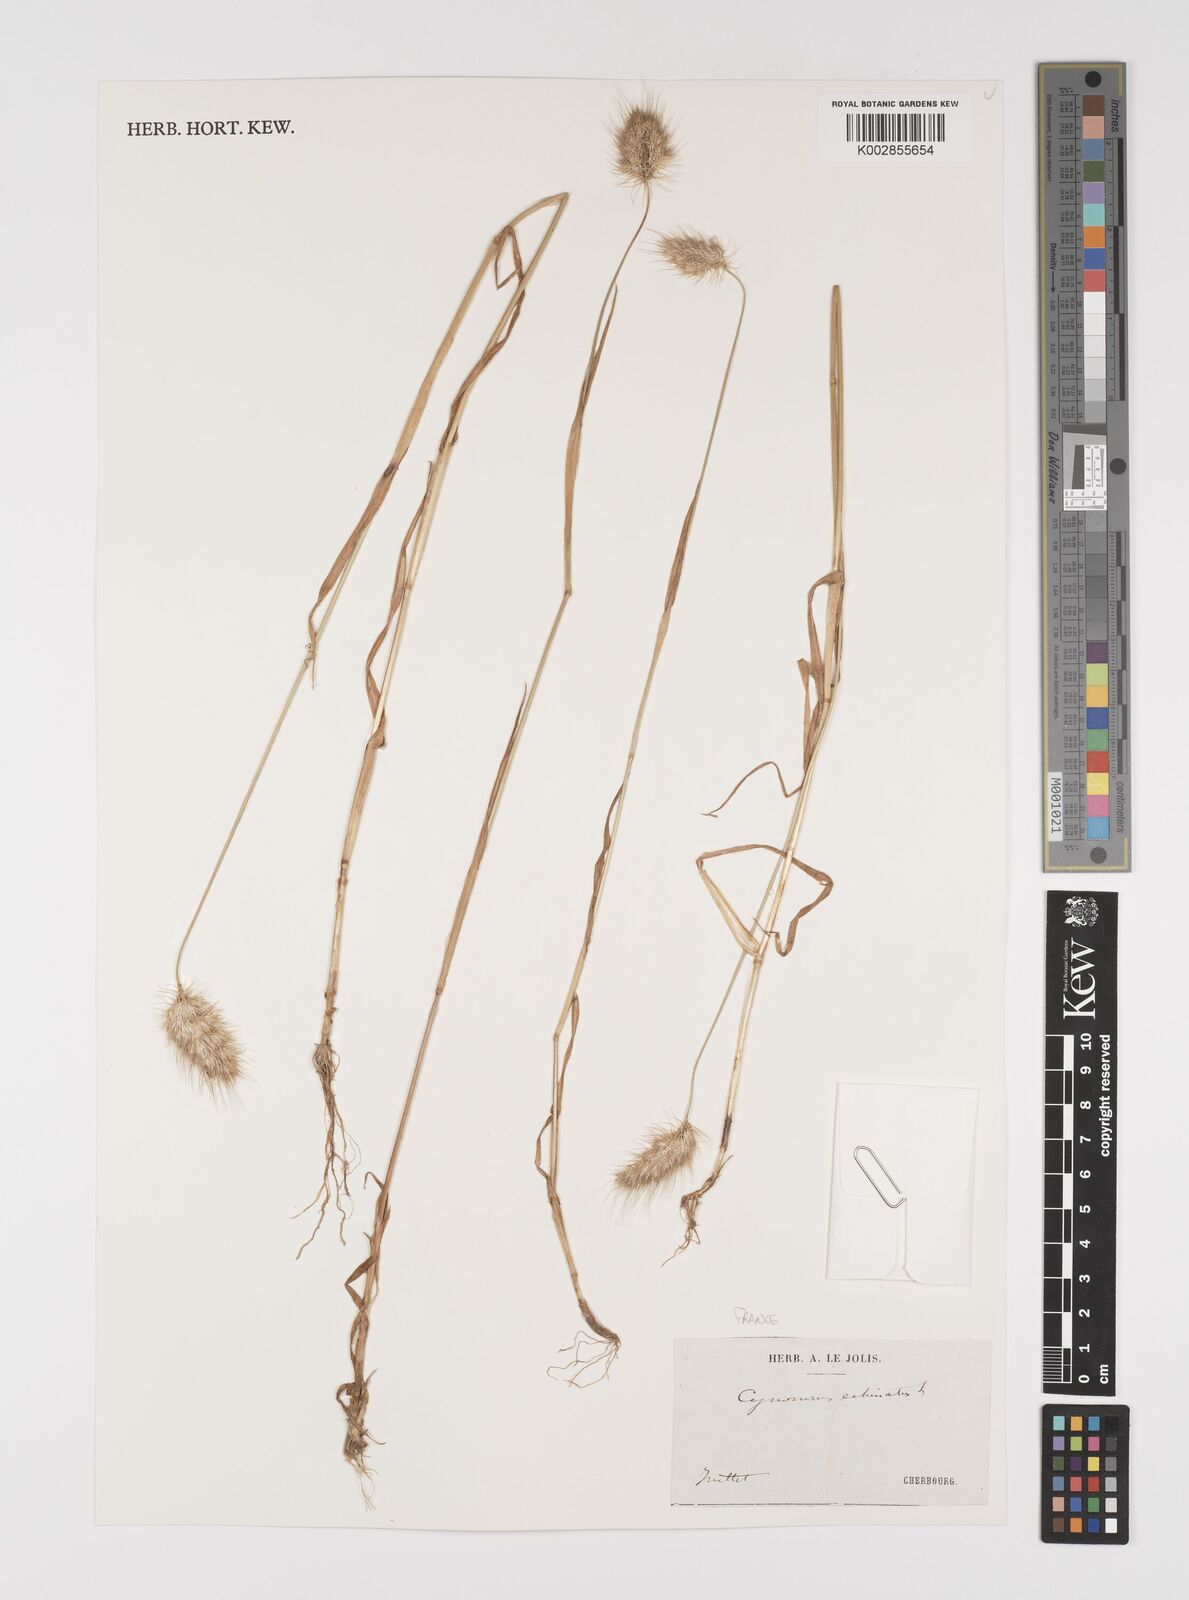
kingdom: Plantae
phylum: Tracheophyta
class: Liliopsida
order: Poales
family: Poaceae
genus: Cynosurus
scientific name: Cynosurus echinatus
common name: Rough dog's-tail
